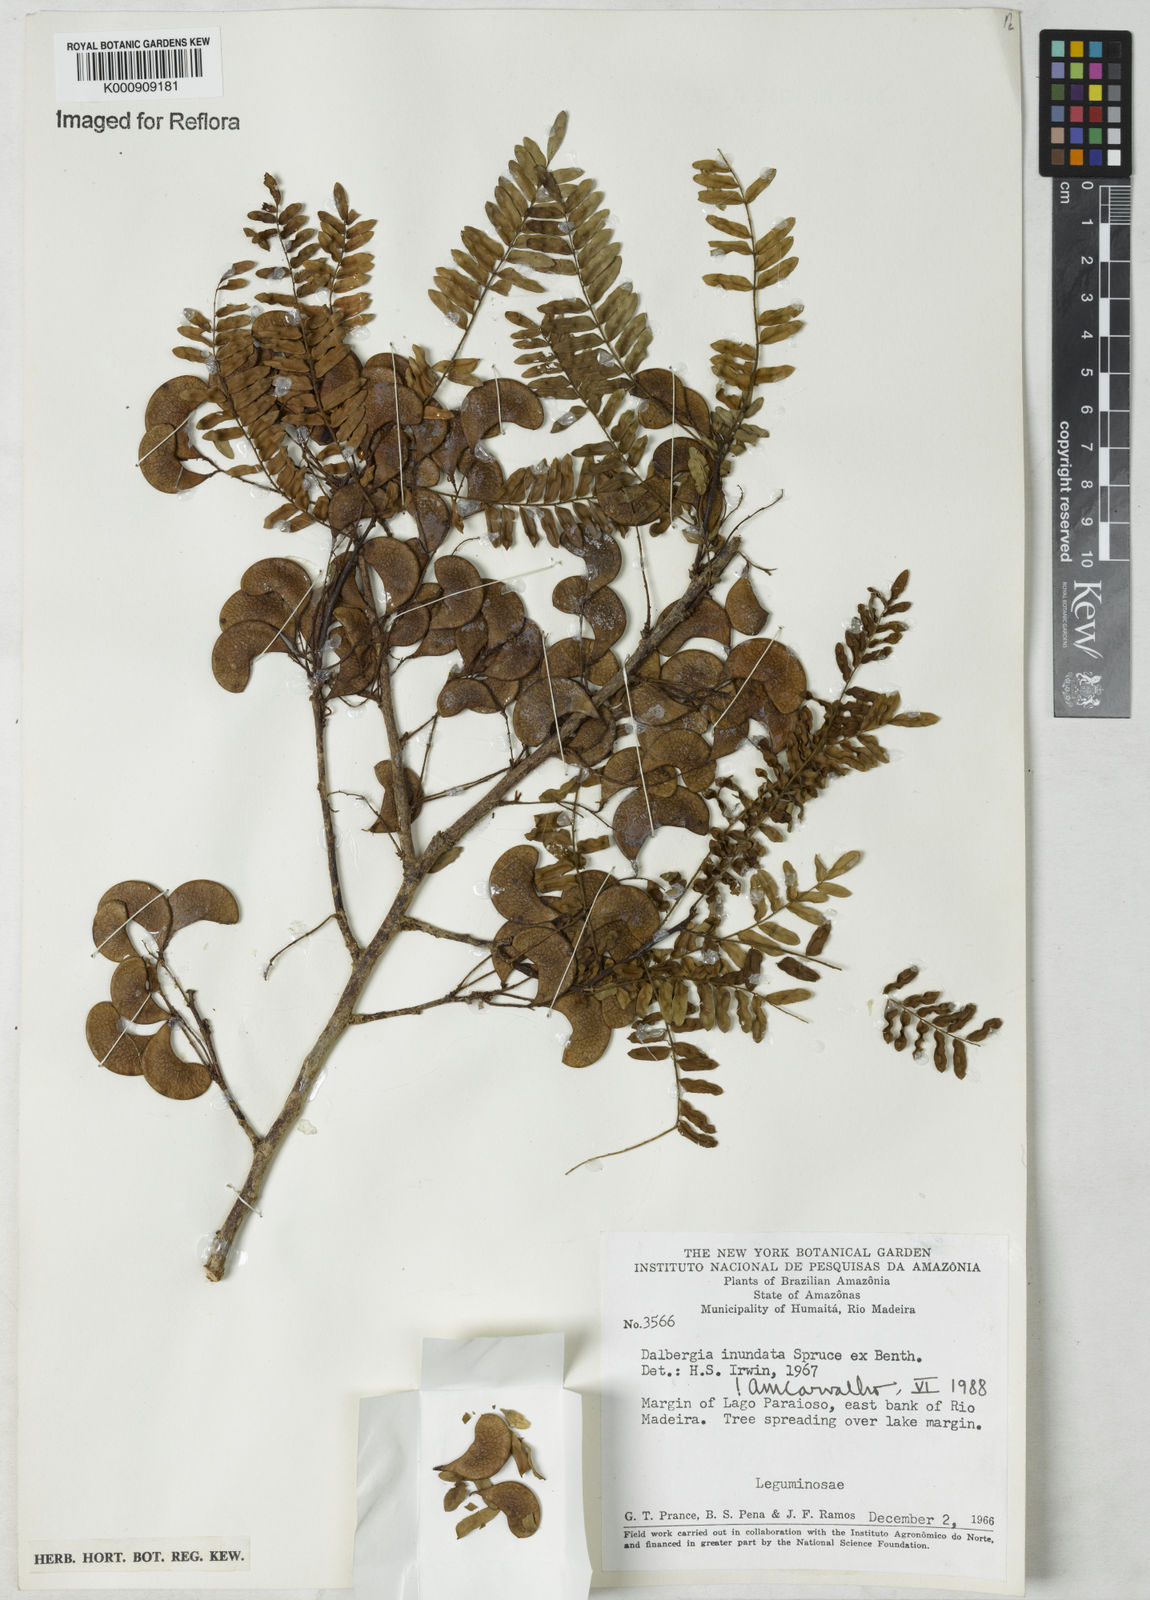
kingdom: Plantae
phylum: Tracheophyta
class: Magnoliopsida
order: Fabales
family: Fabaceae
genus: Dalbergia
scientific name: Dalbergia inundata
